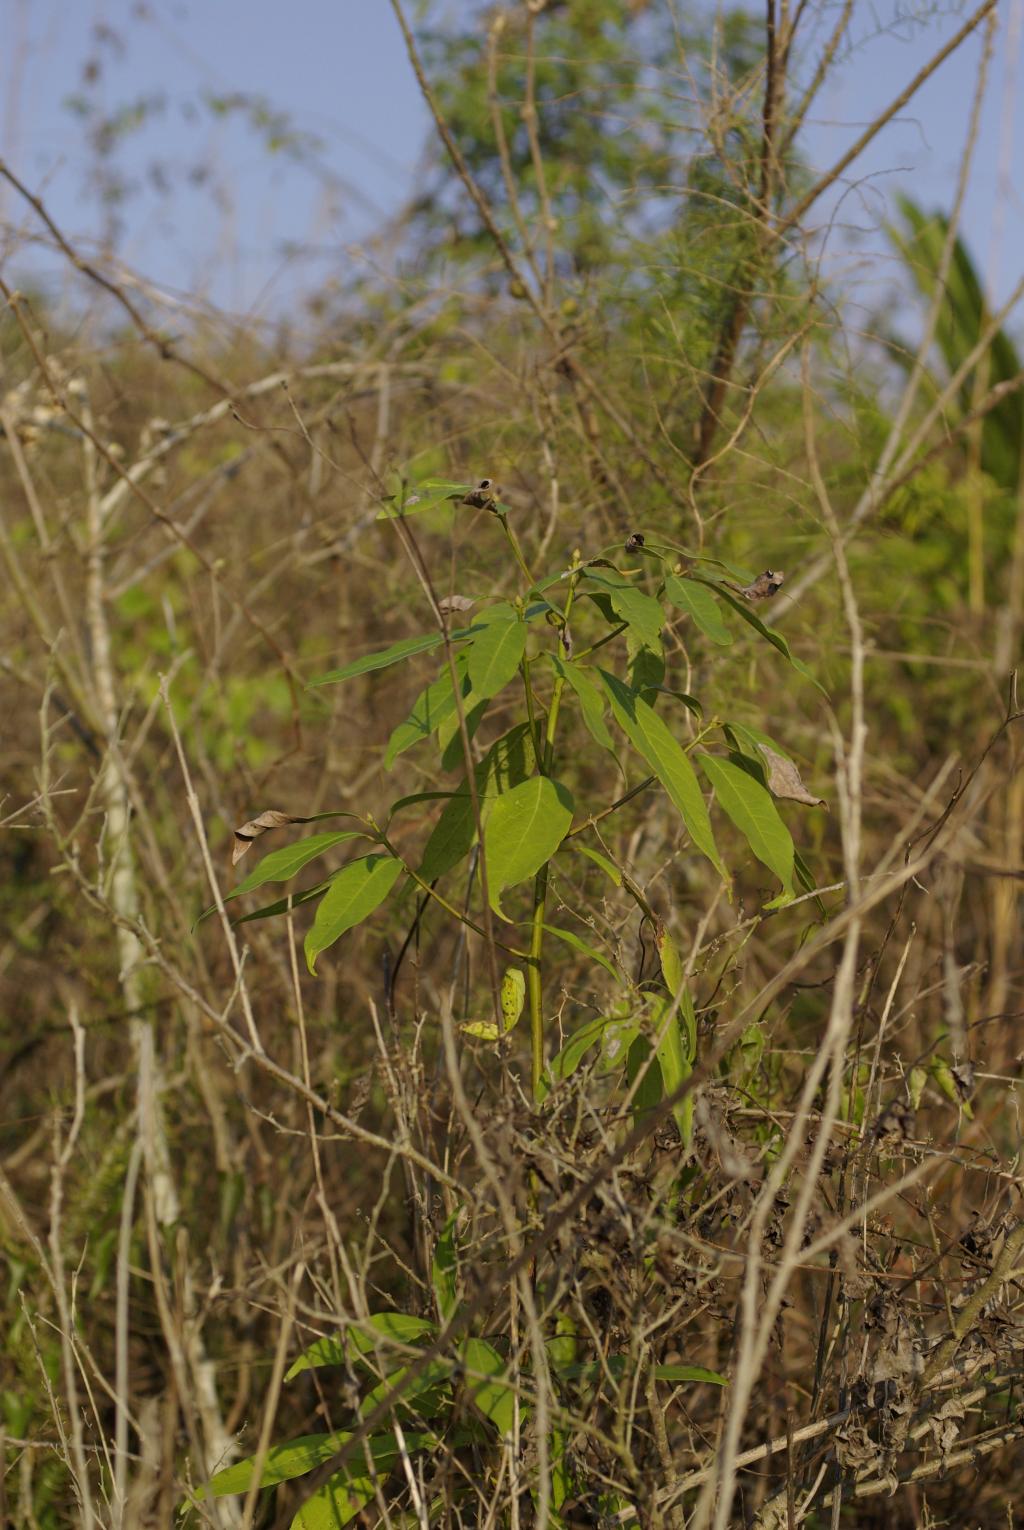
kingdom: Plantae
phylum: Tracheophyta
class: Magnoliopsida
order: Laurales
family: Lauraceae
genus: Machilus
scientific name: Machilus zuihoensis
